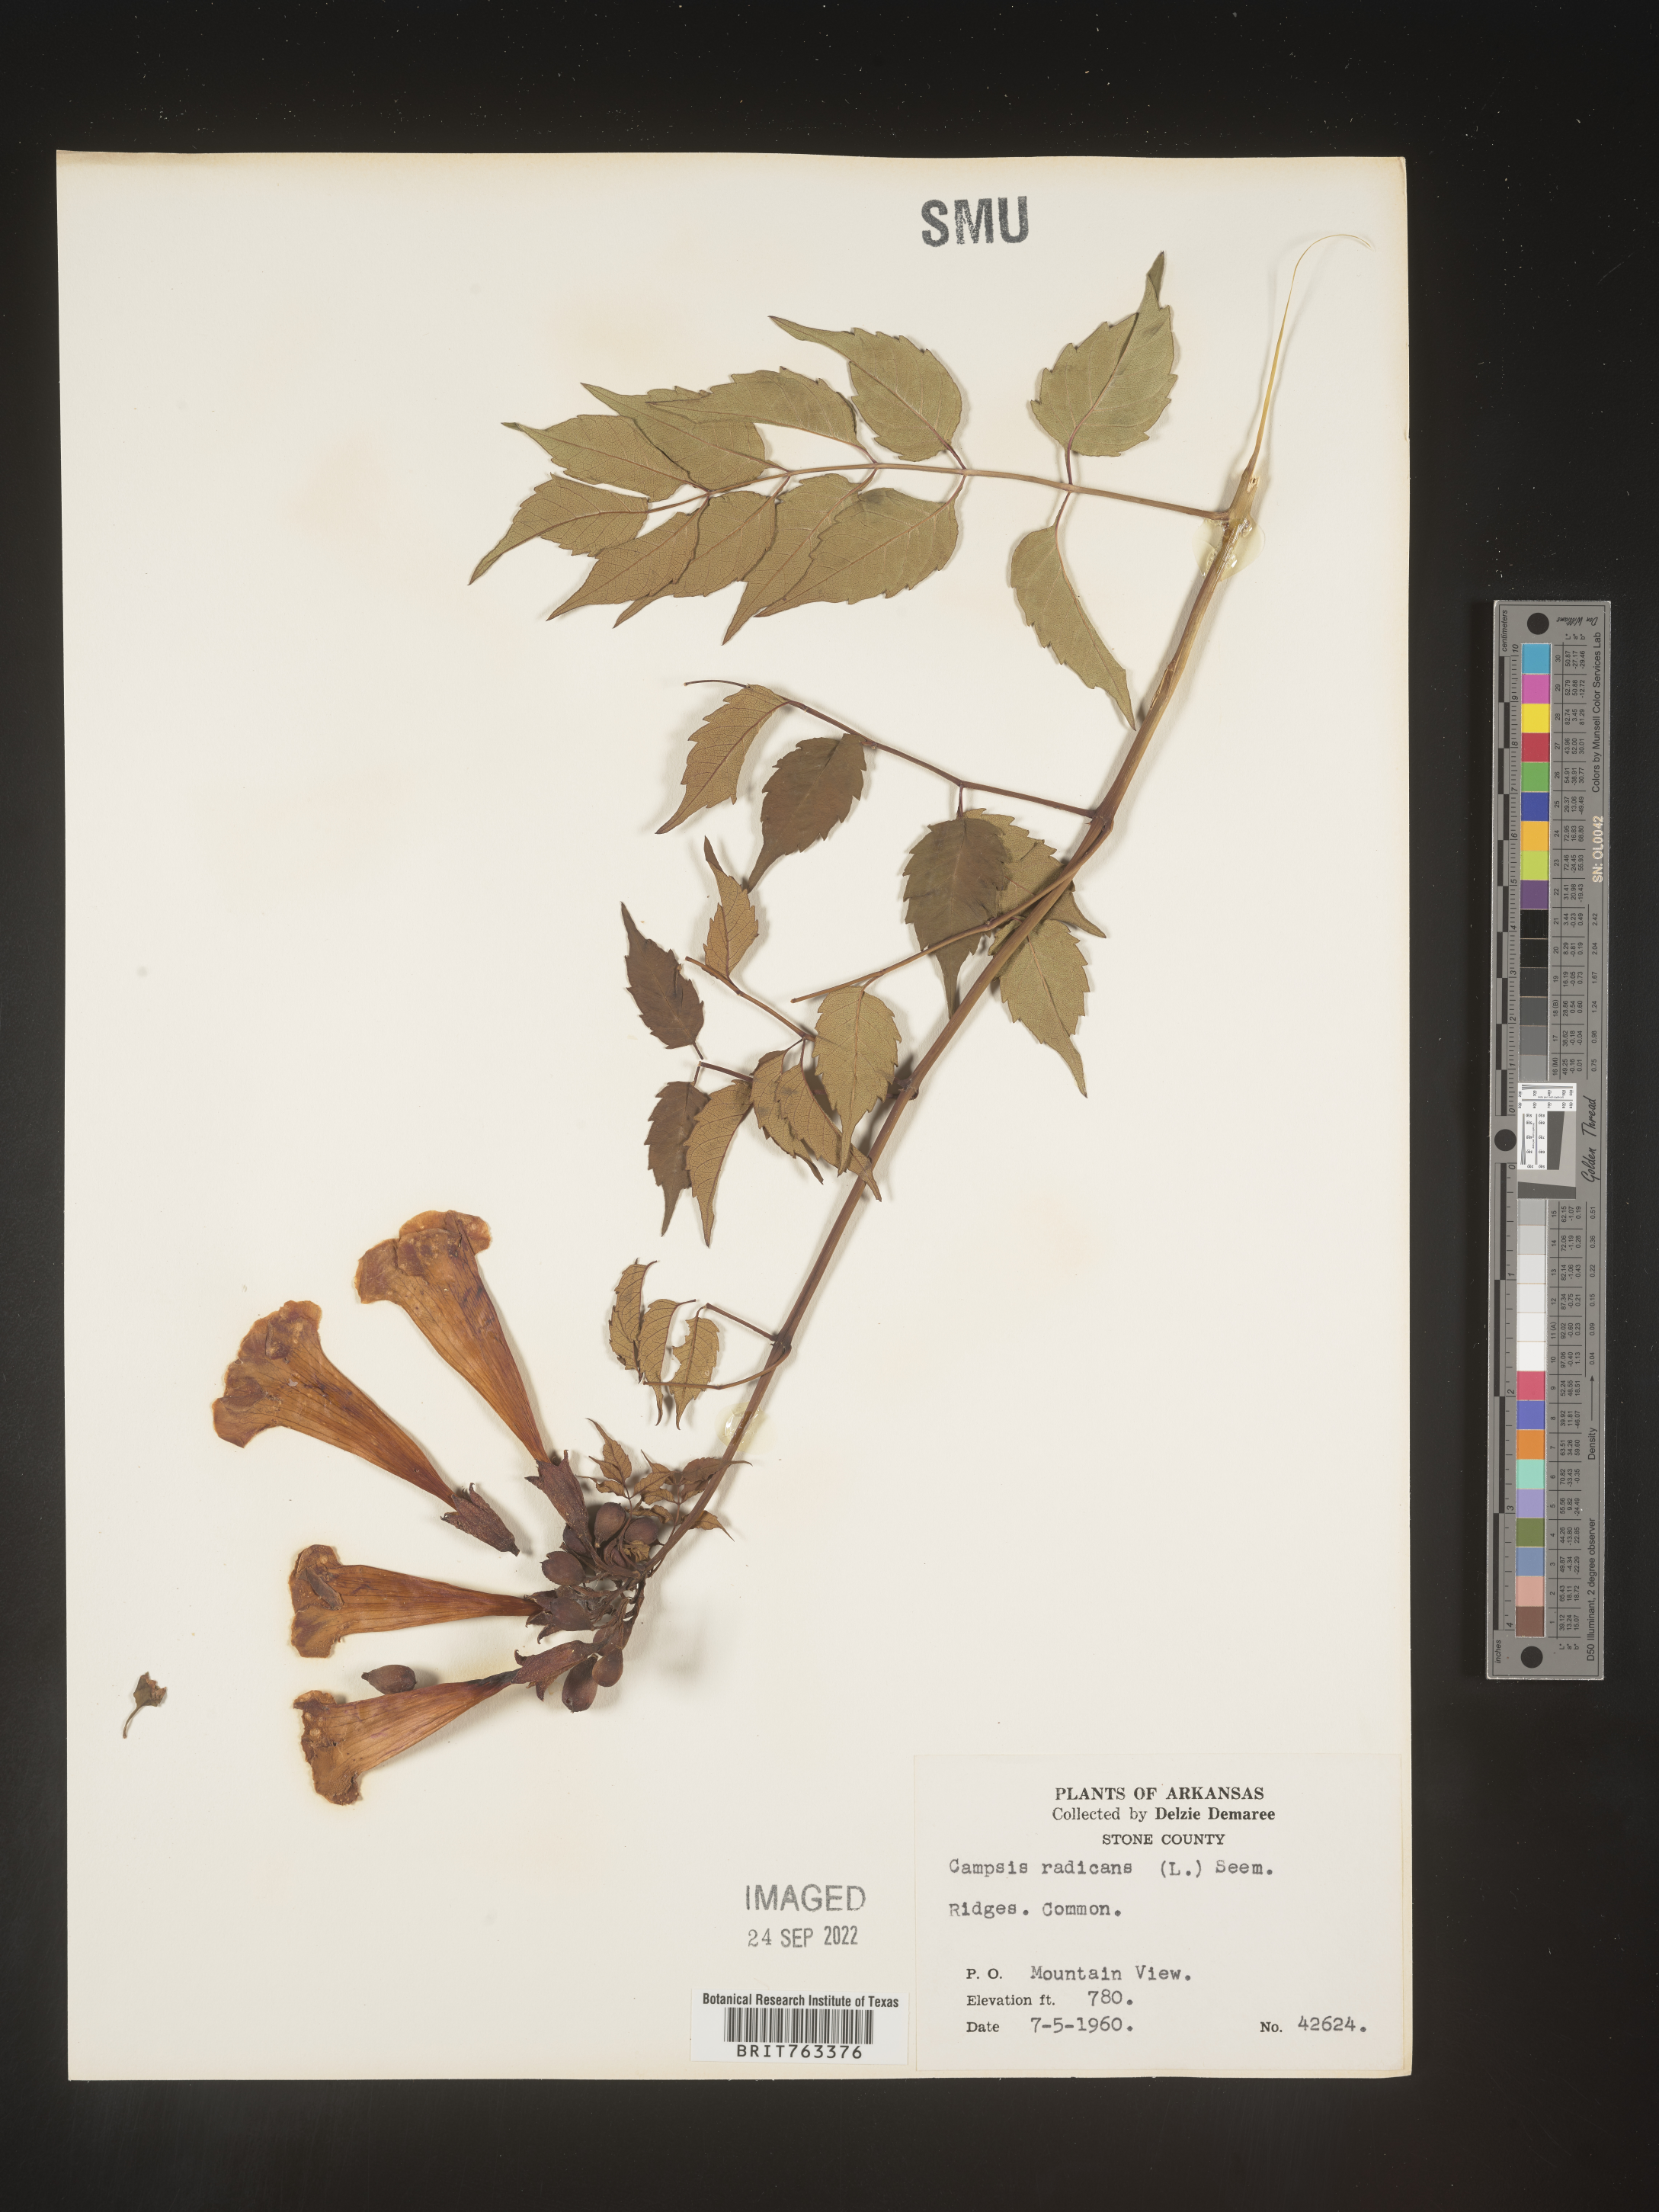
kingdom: Plantae
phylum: Tracheophyta
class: Magnoliopsida
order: Lamiales
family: Bignoniaceae
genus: Campsis
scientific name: Campsis radicans
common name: Trumpet-creeper
